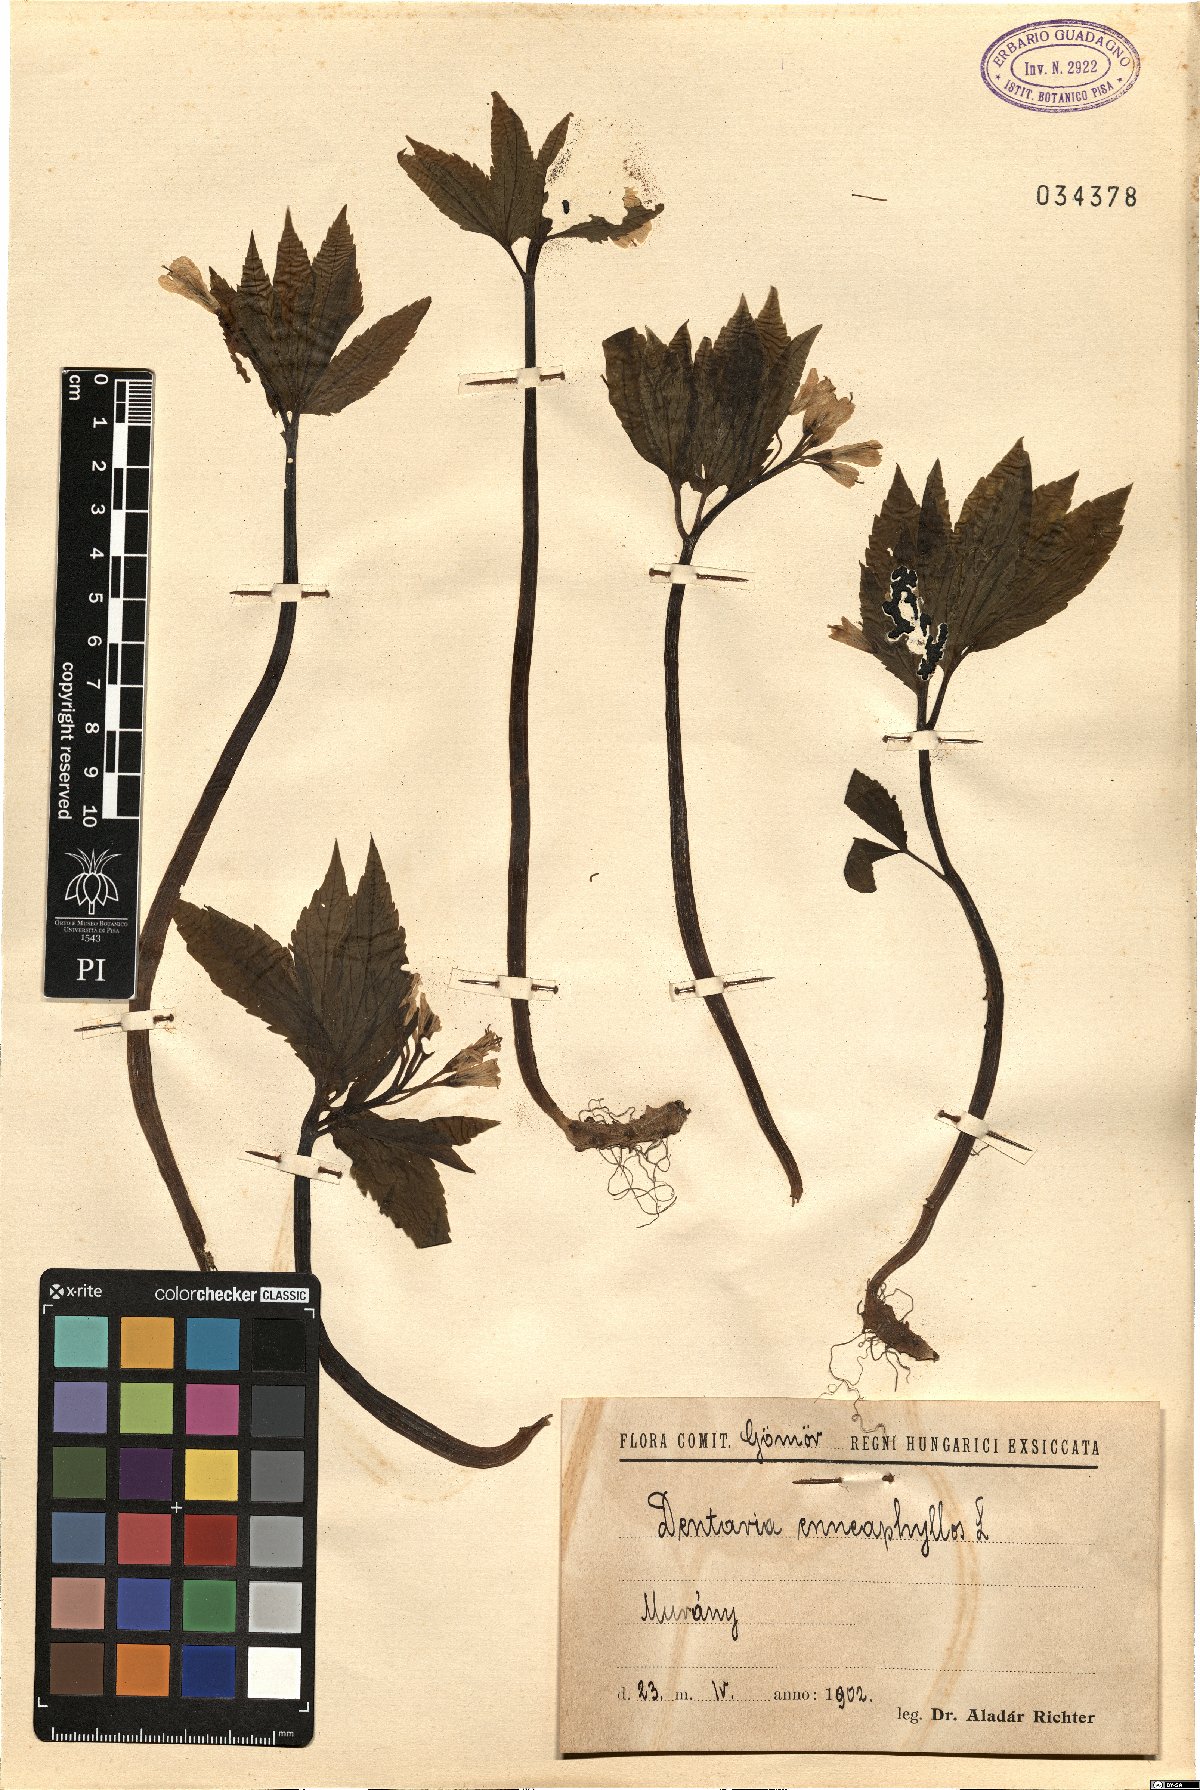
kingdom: Plantae
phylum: Tracheophyta
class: Magnoliopsida
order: Brassicales
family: Brassicaceae
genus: Cardamine
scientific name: Cardamine enneaphyllos
